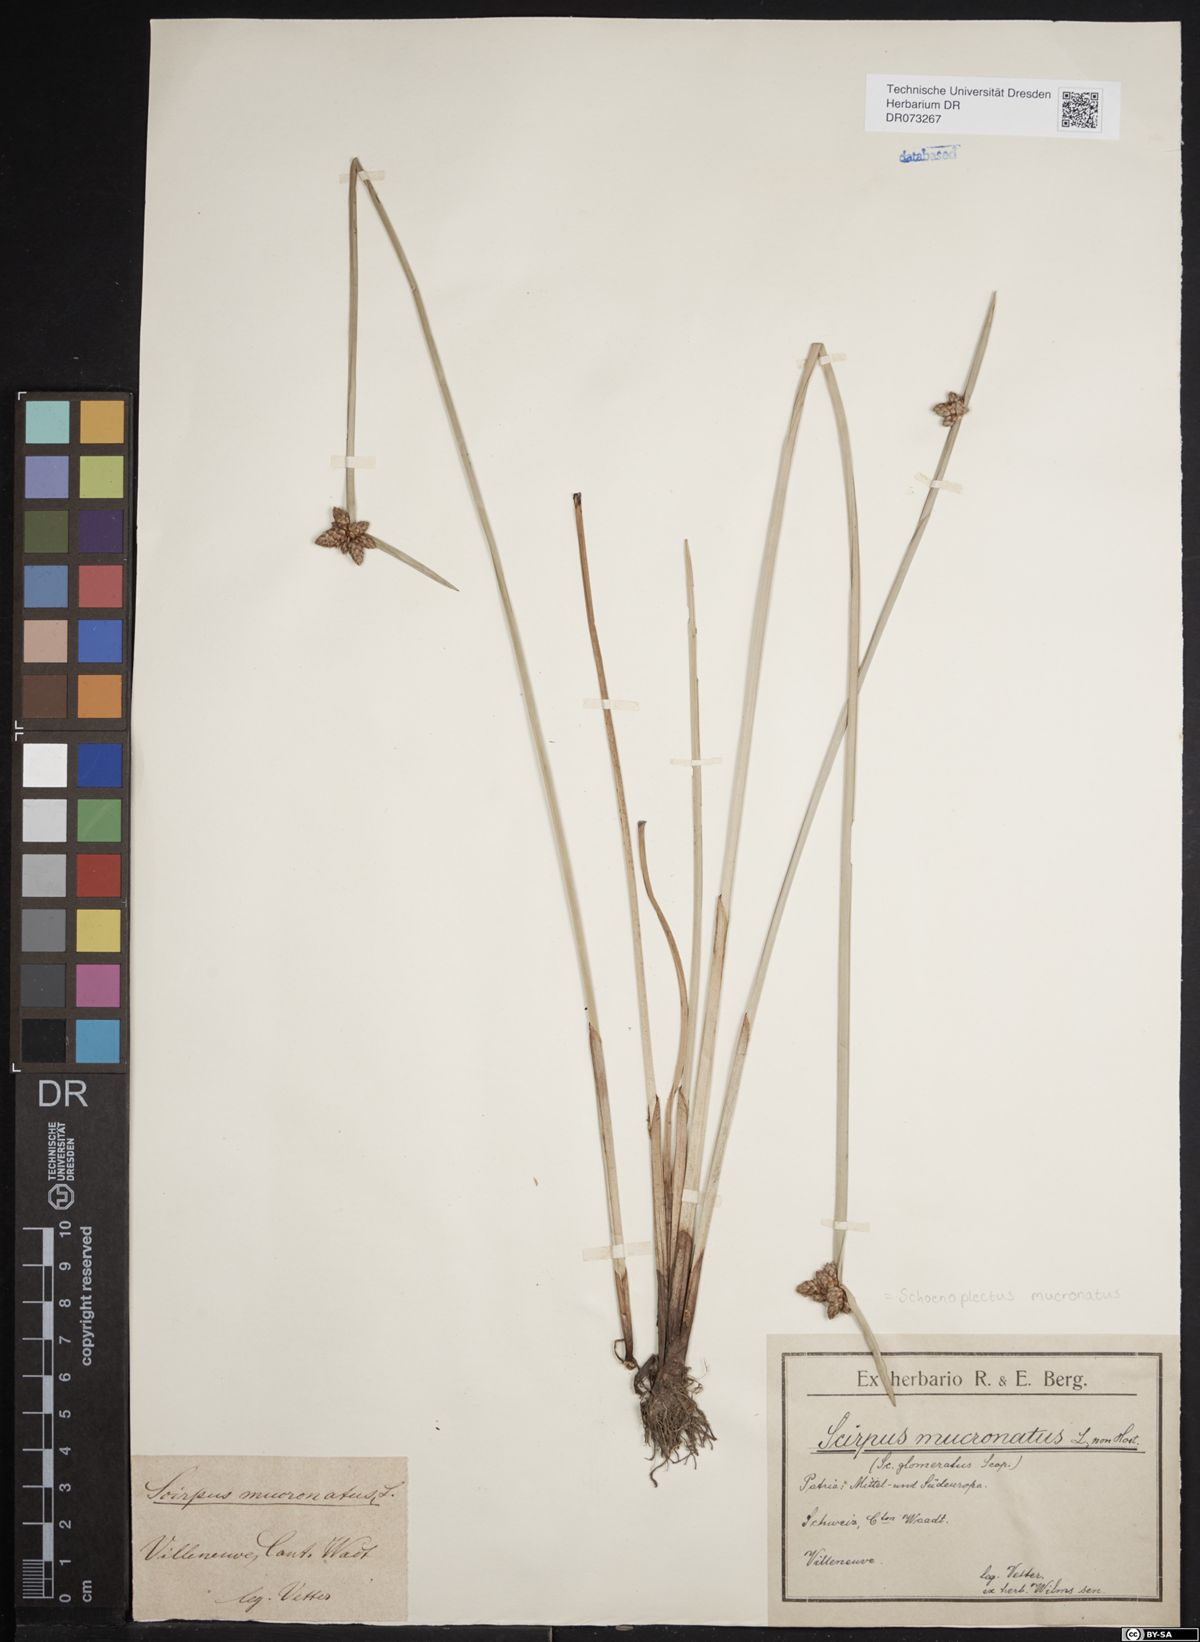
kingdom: Plantae
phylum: Tracheophyta
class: Liliopsida
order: Poales
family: Cyperaceae
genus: Schoenoplectiella
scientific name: Schoenoplectiella mucronata
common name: Bog bulrush
